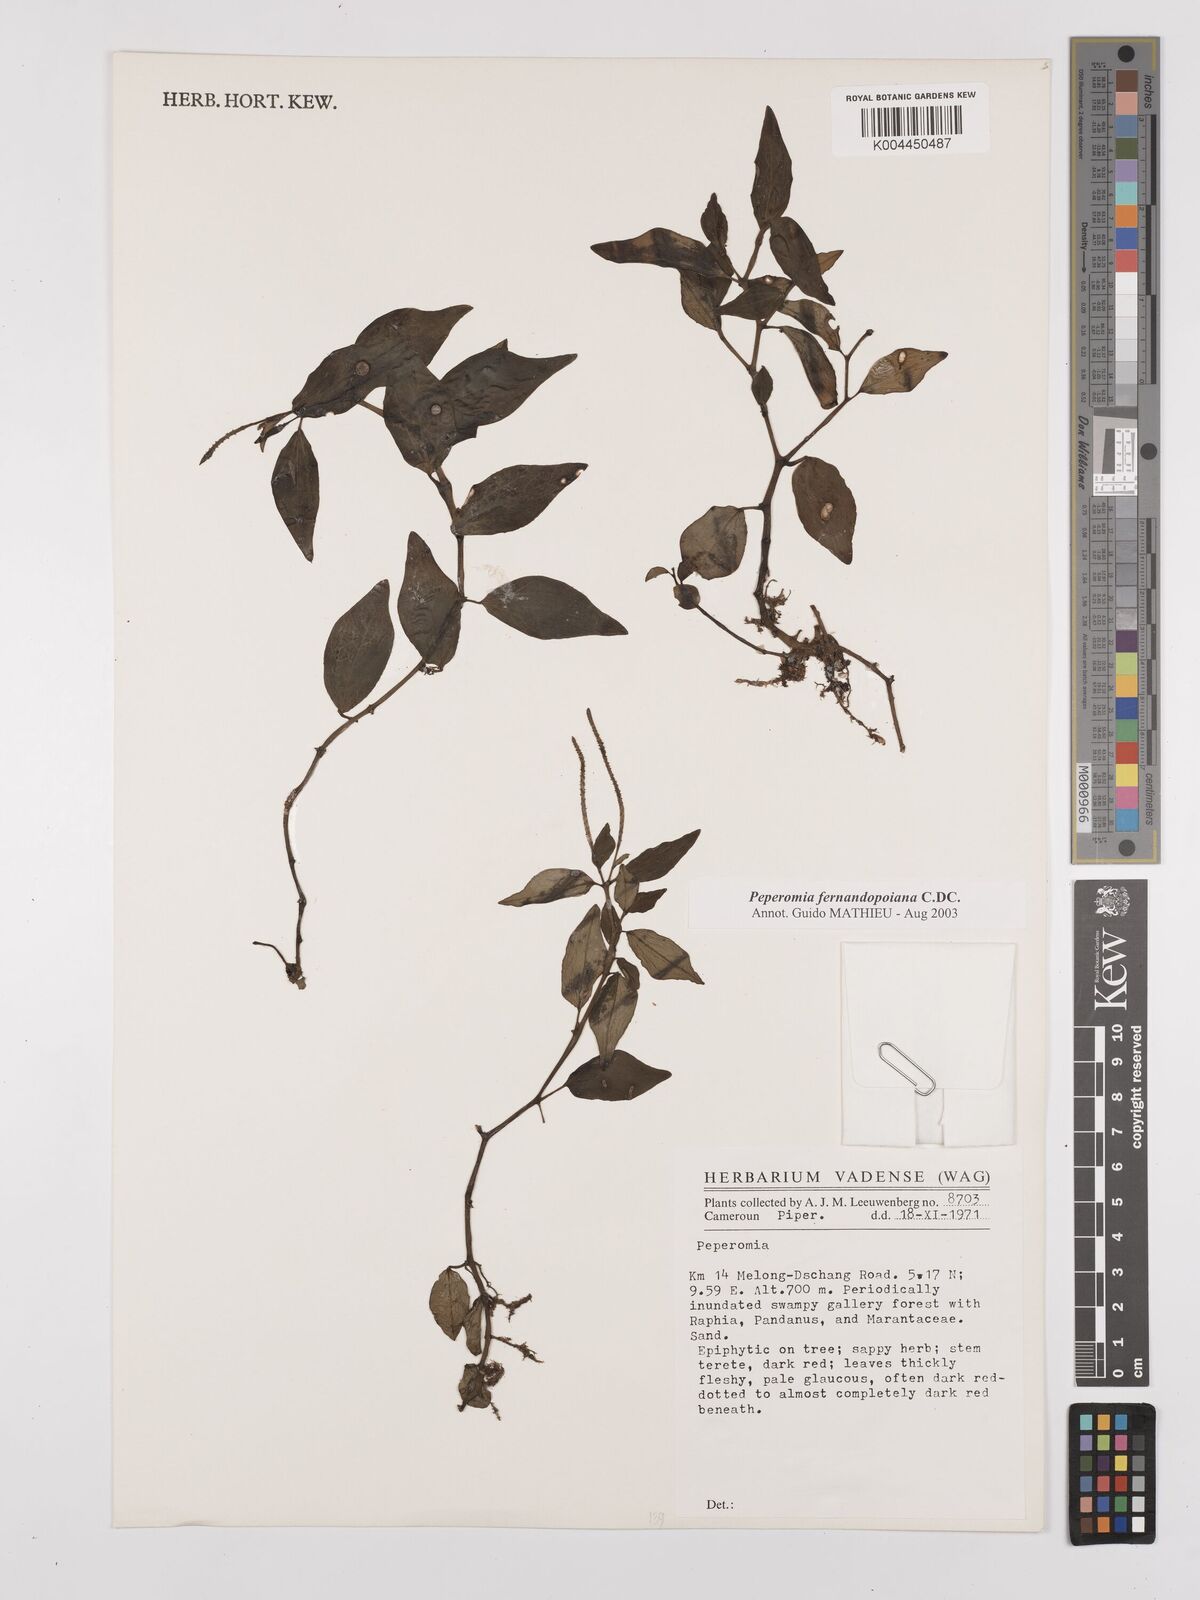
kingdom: Plantae
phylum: Tracheophyta
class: Magnoliopsida
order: Piperales
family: Piperaceae
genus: Peperomia
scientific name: Peperomia fernandopoiana
